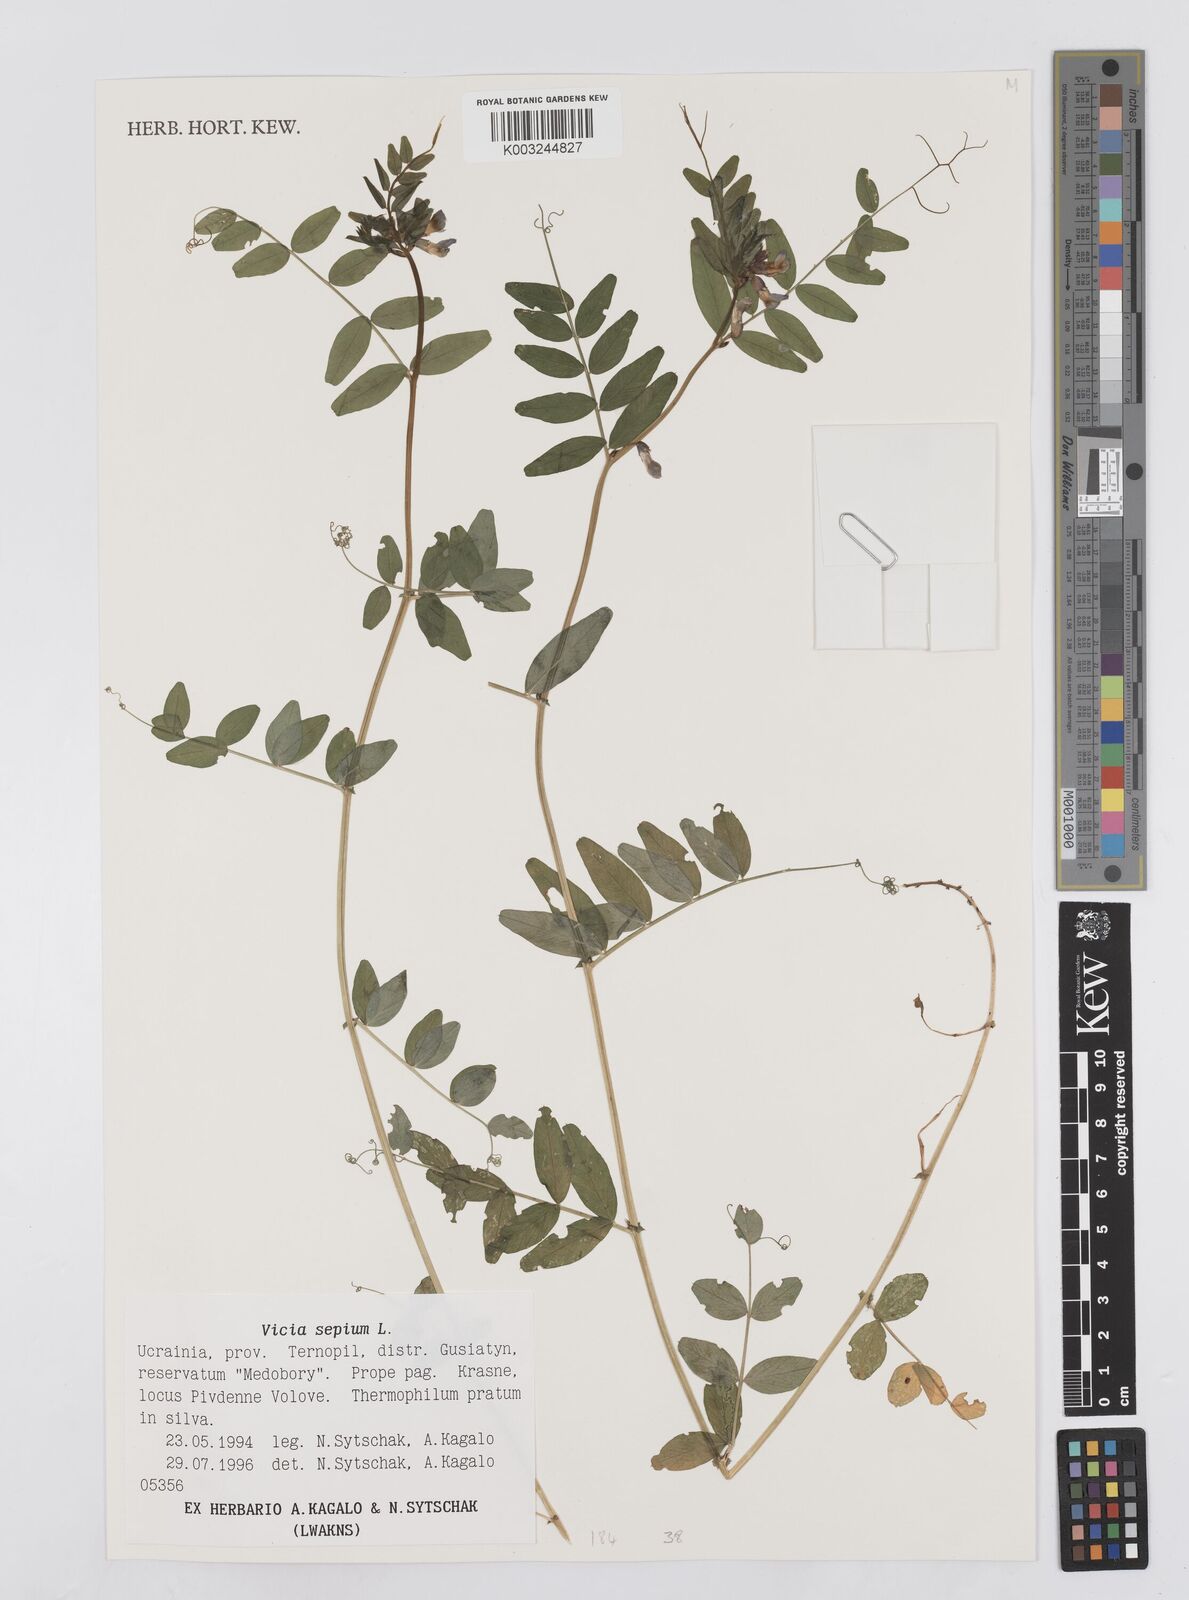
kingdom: Plantae
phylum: Tracheophyta
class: Magnoliopsida
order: Fabales
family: Fabaceae
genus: Vicia
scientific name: Vicia sepium
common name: Bush vetch
